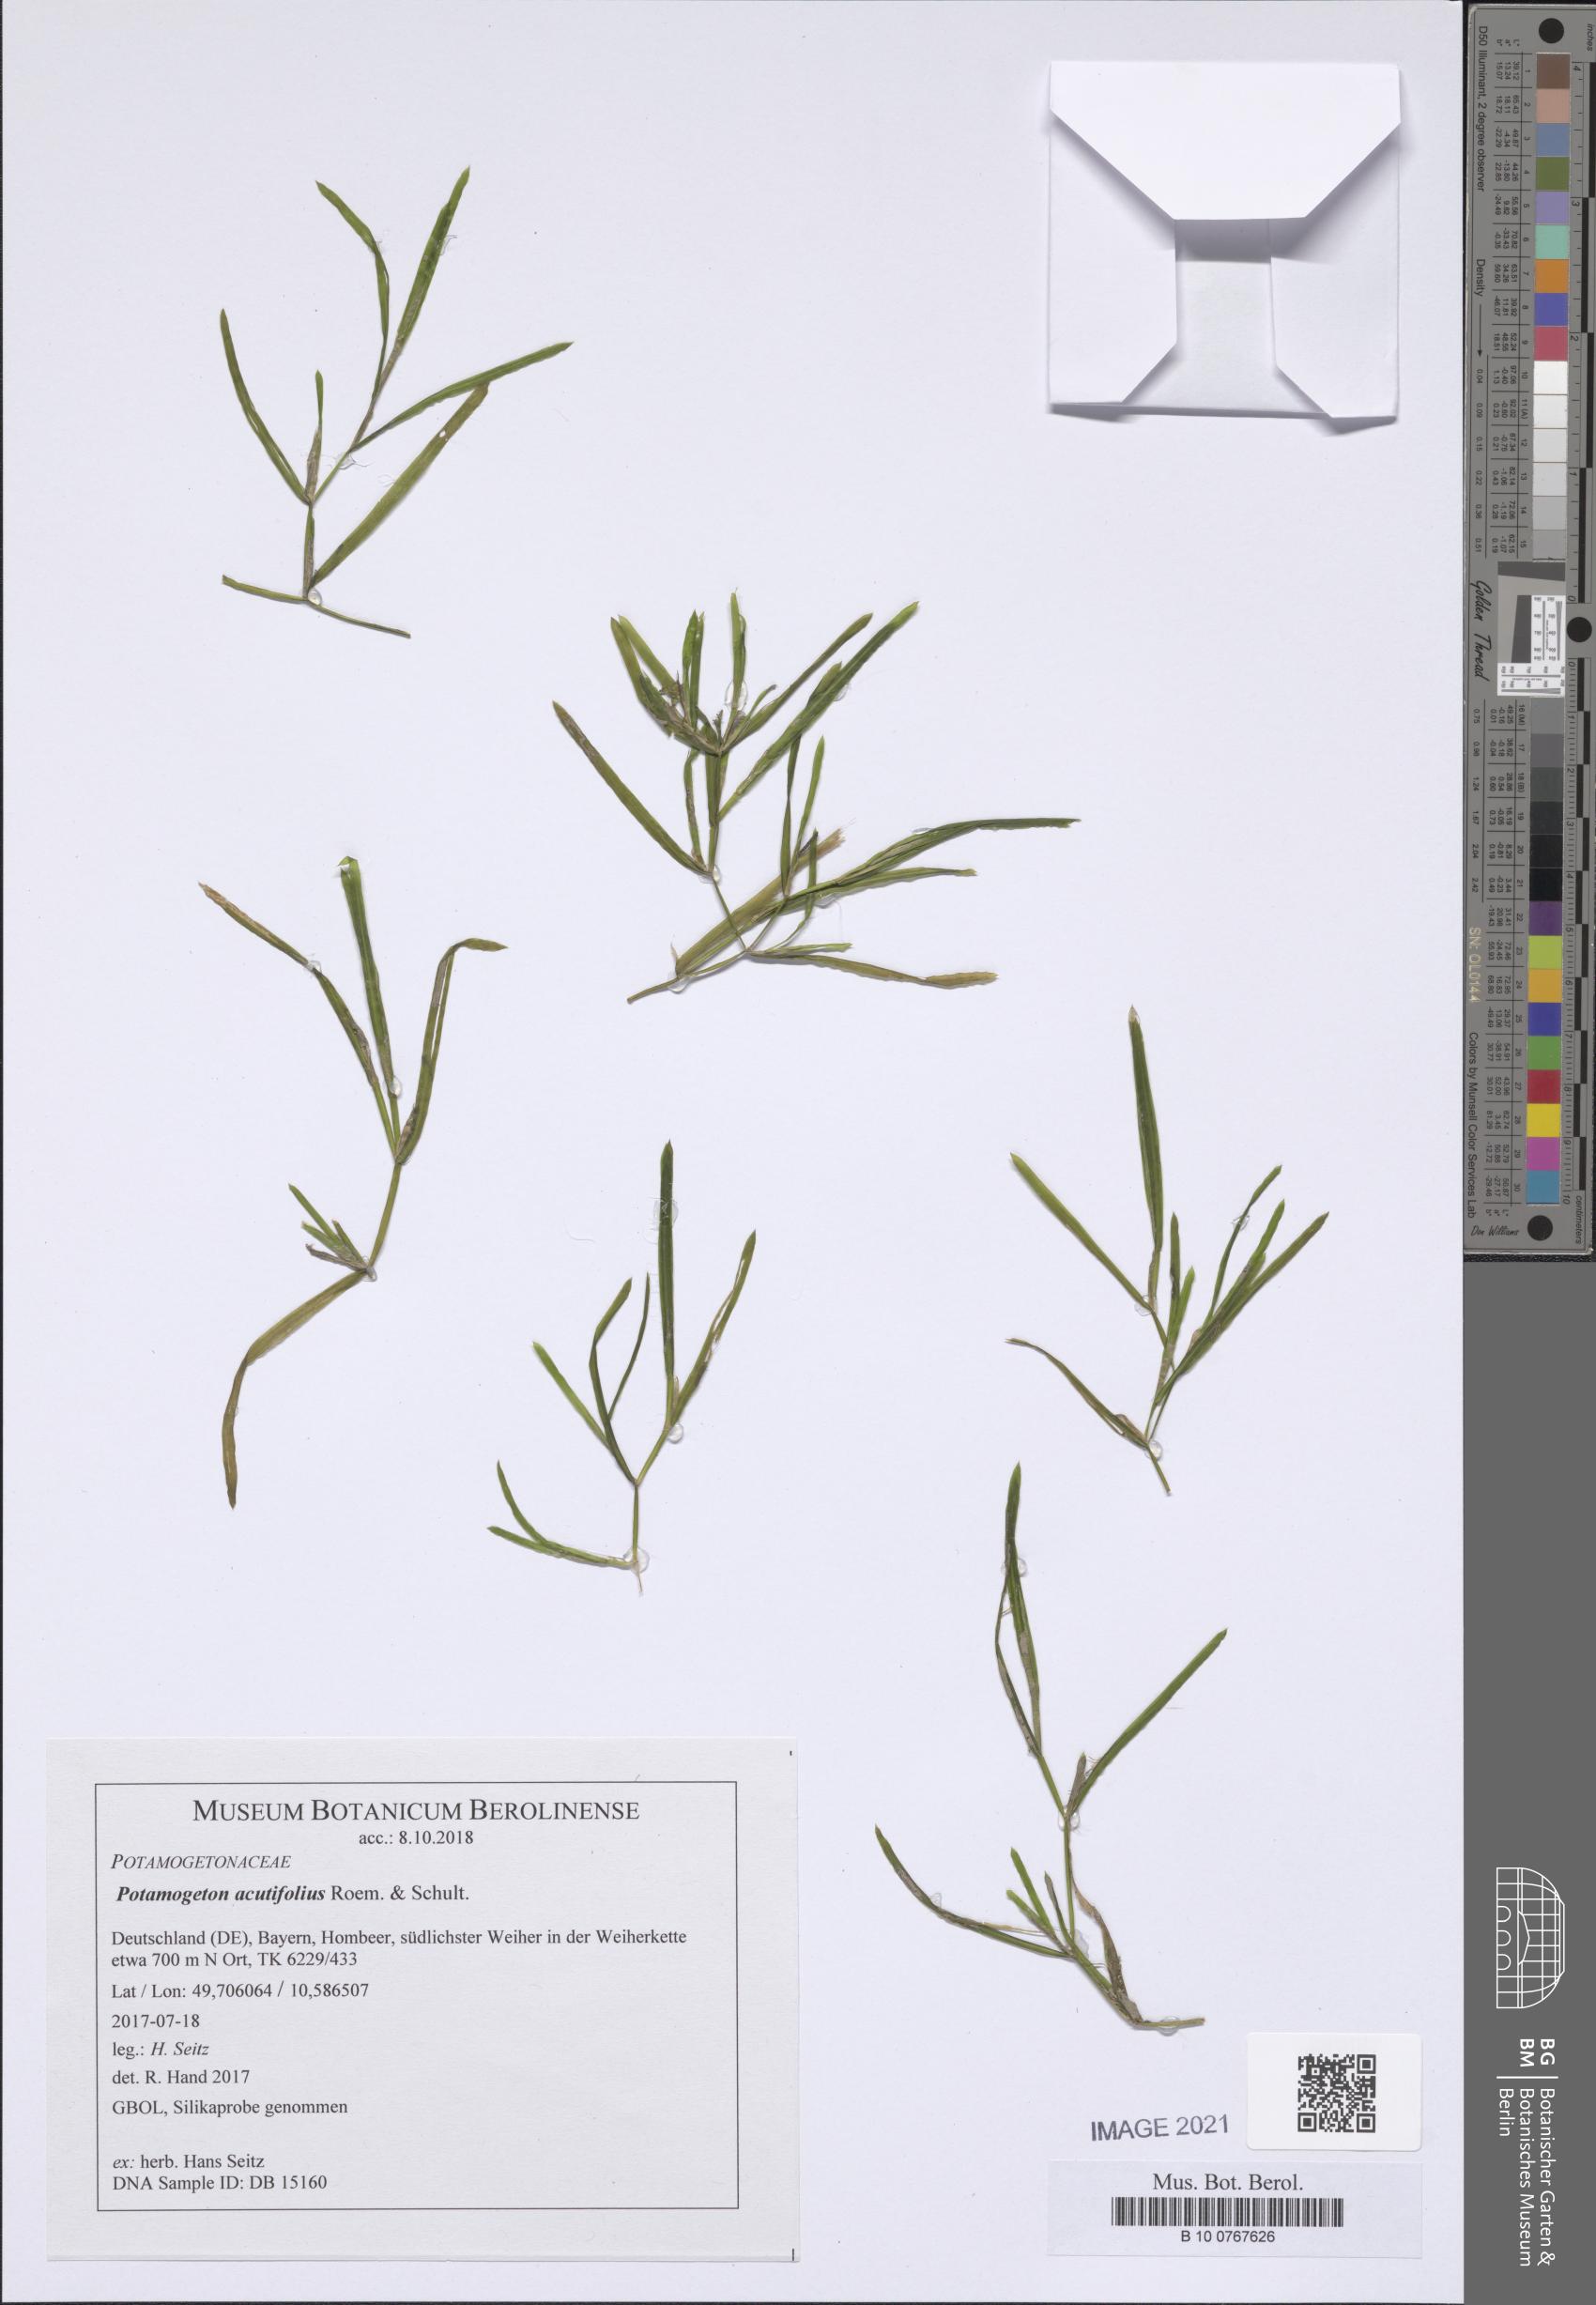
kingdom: Plantae
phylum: Tracheophyta
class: Liliopsida
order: Alismatales
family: Potamogetonaceae
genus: Potamogeton
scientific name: Potamogeton acutifolius
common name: Sharp-leaved pondweed
